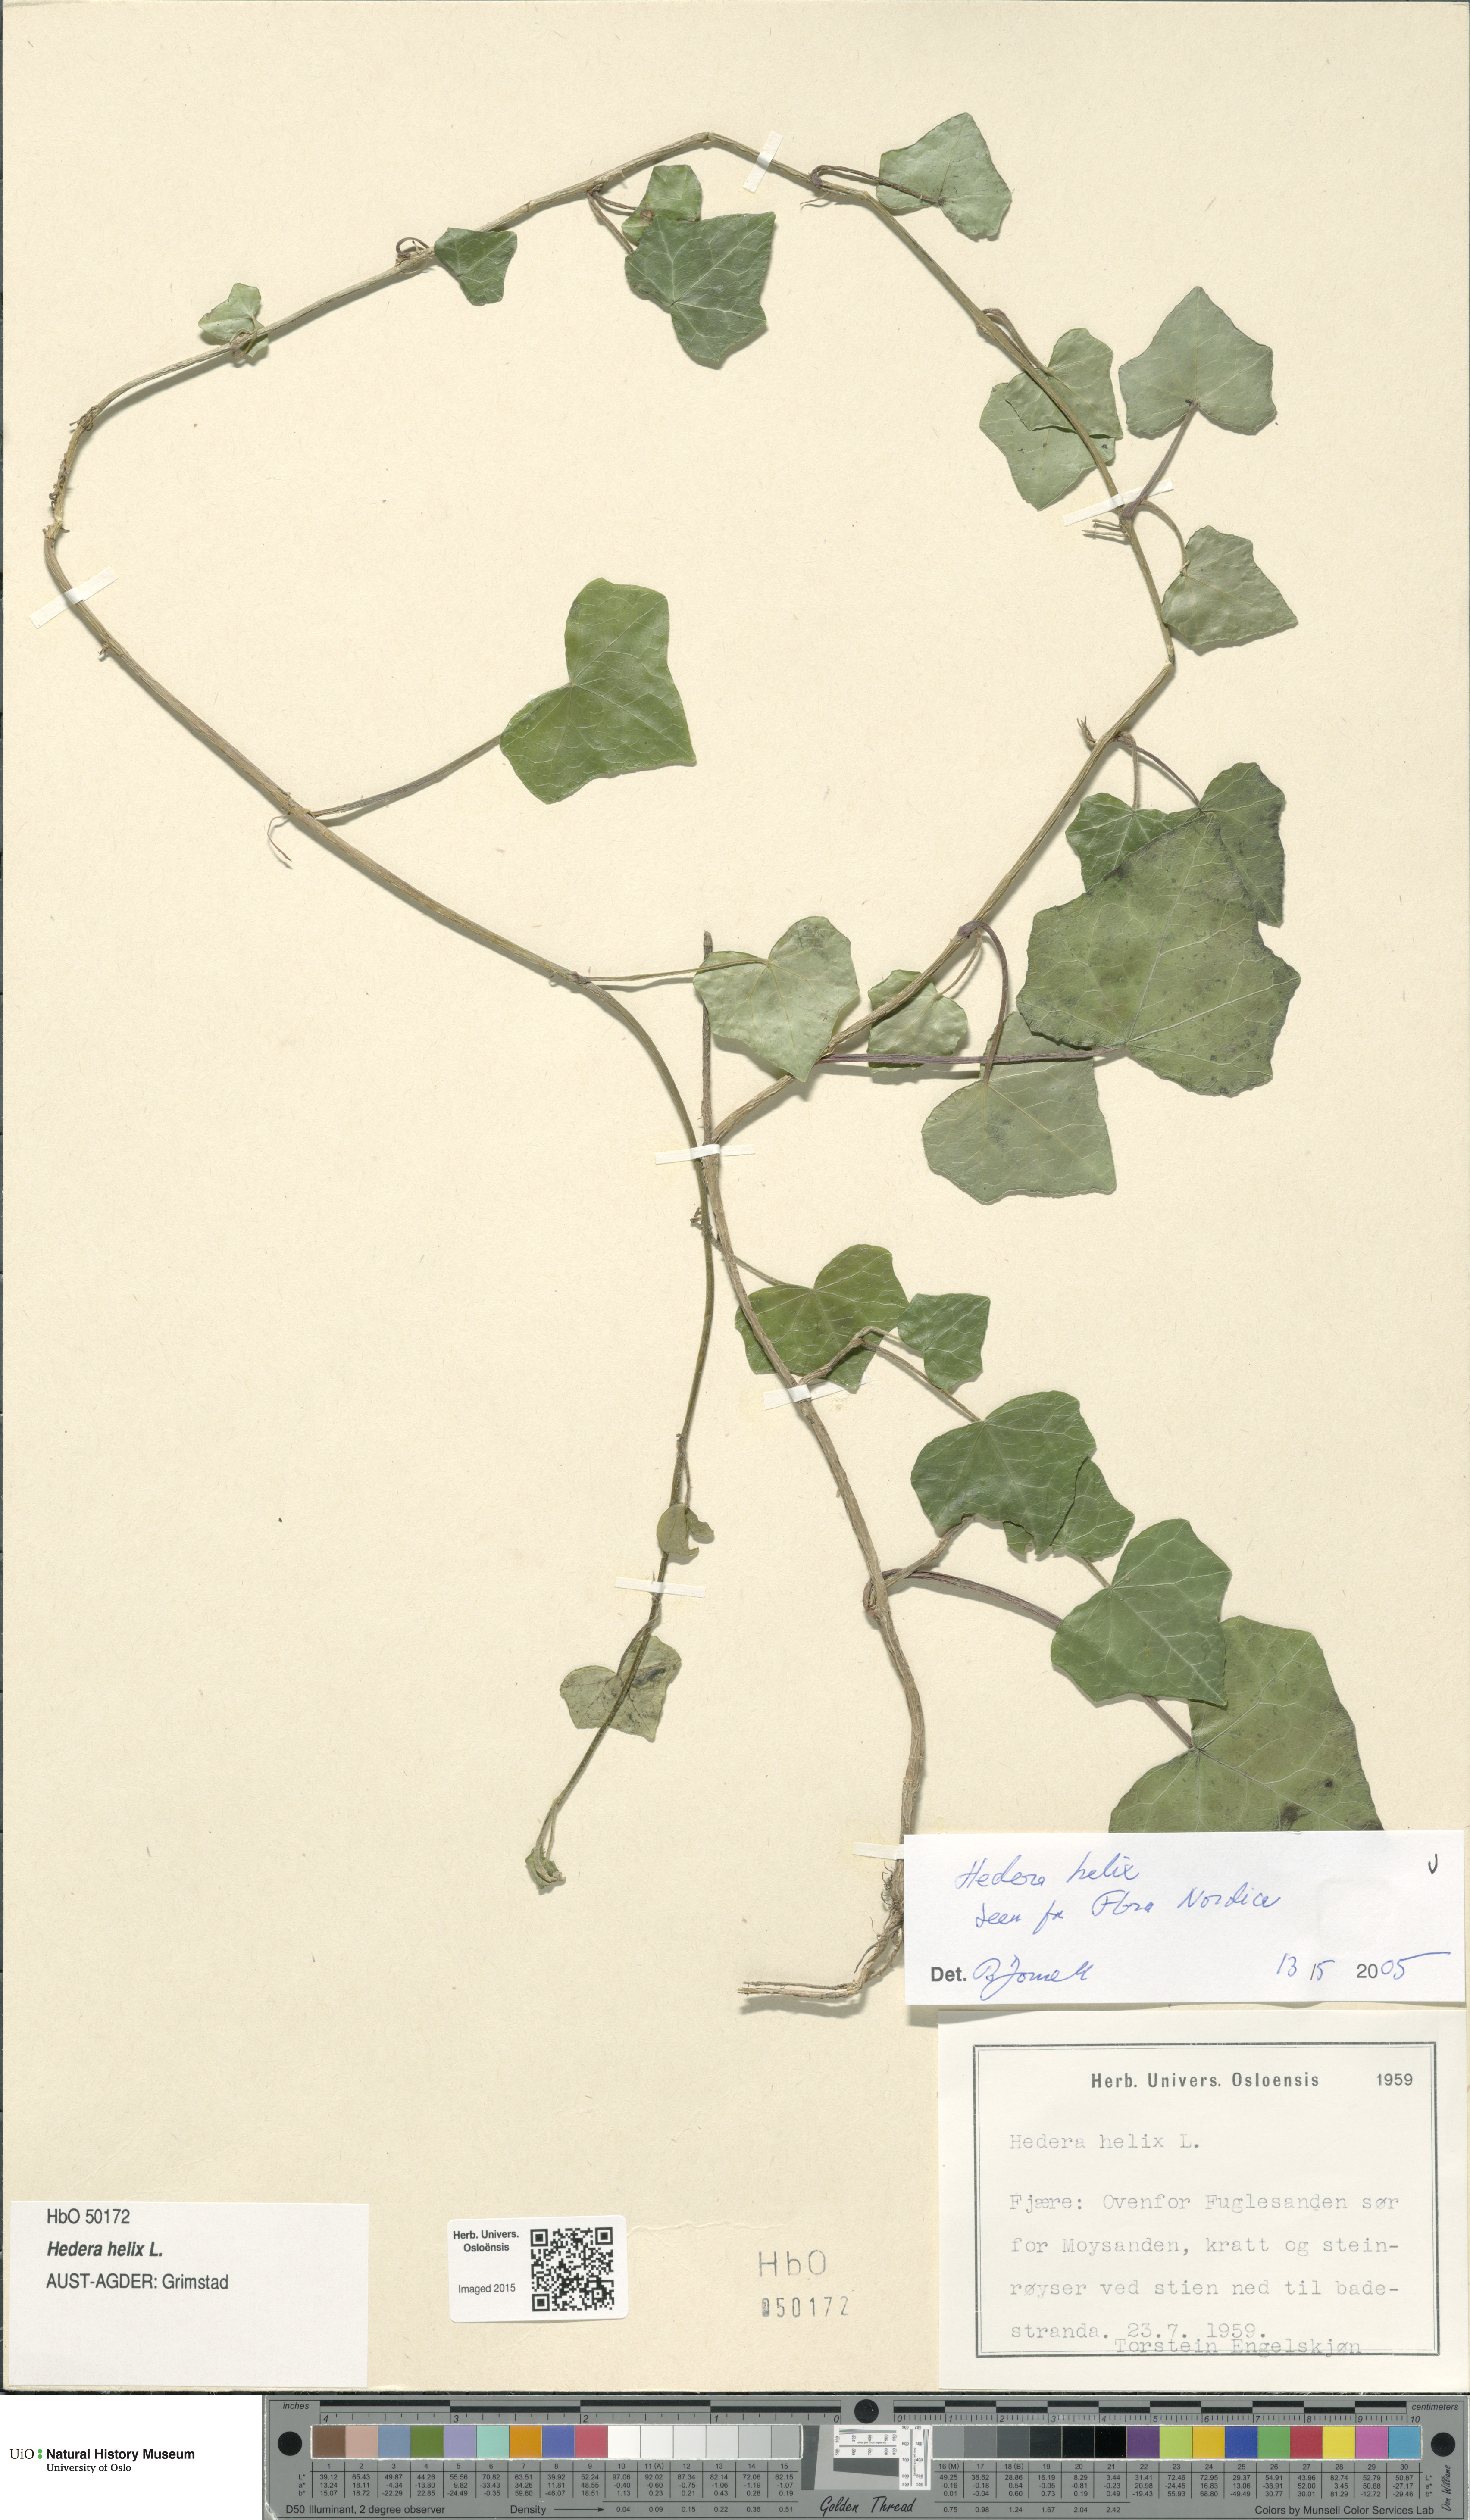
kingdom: Plantae
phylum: Tracheophyta
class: Magnoliopsida
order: Apiales
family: Araliaceae
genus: Hedera
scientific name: Hedera helix
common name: Ivy
